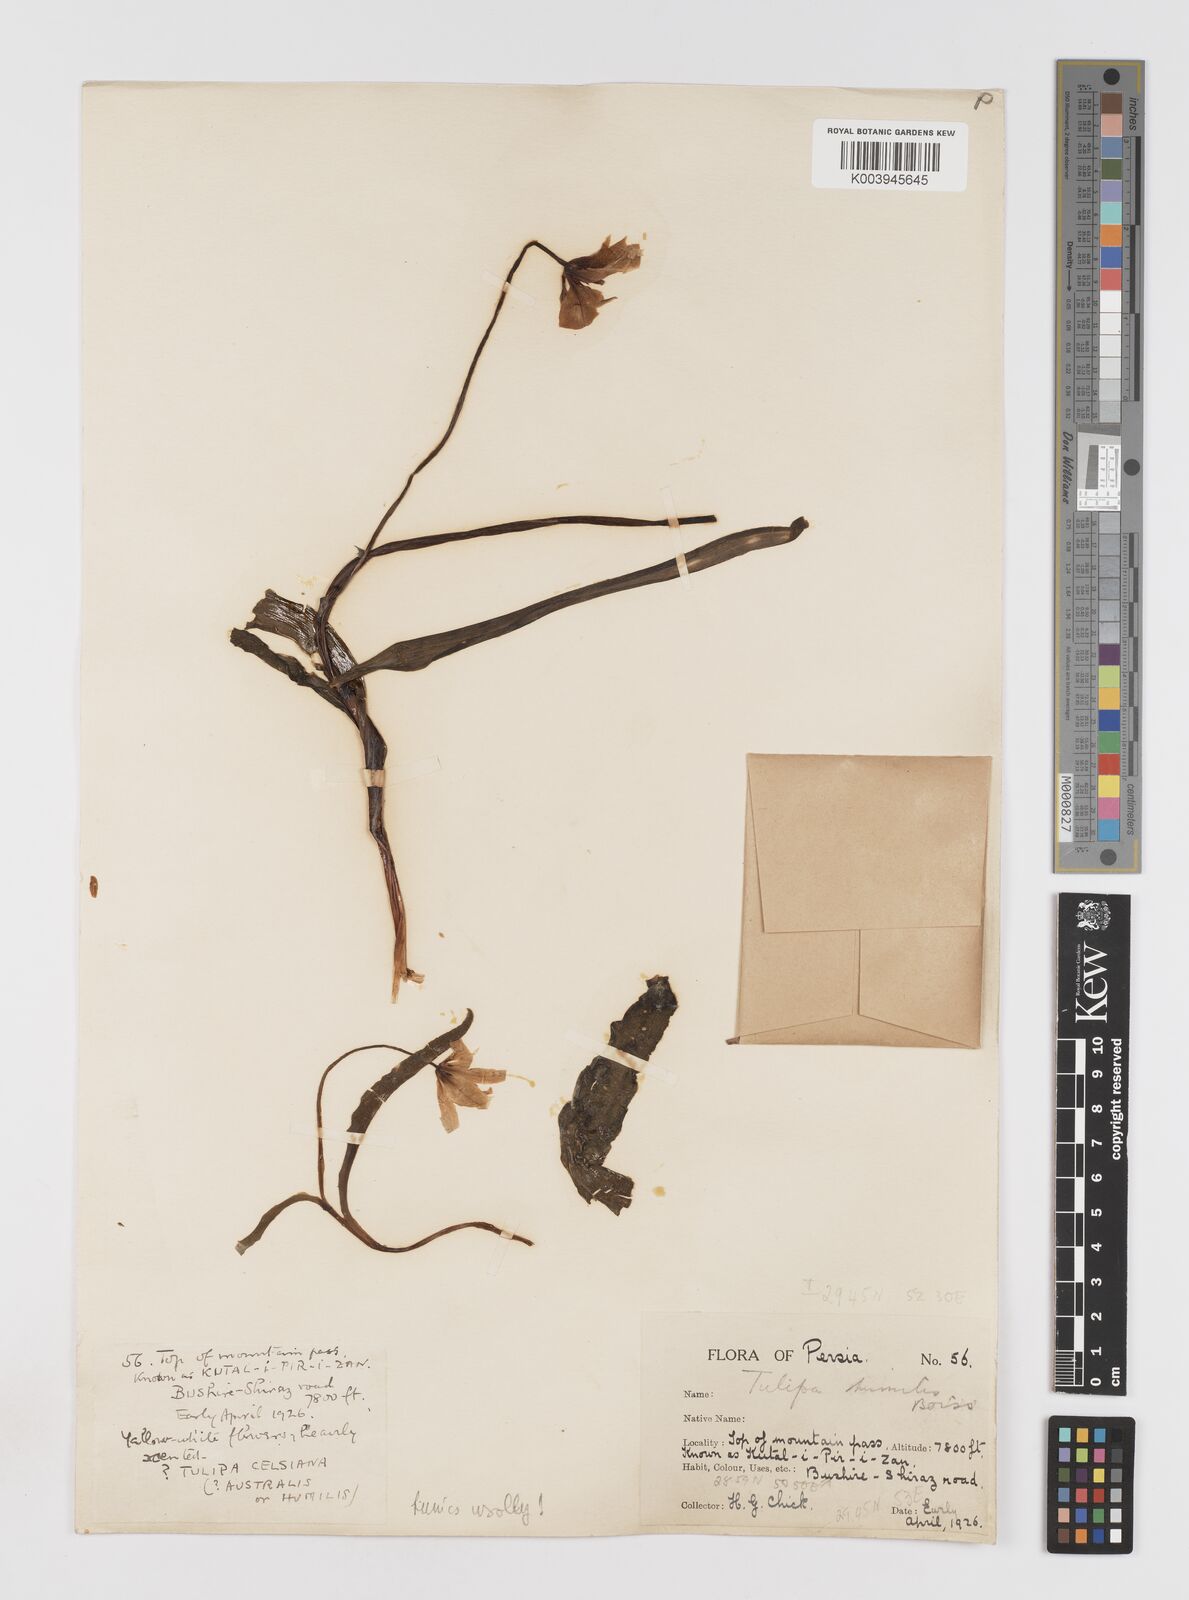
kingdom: Plantae
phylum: Tracheophyta
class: Liliopsida
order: Liliales
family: Liliaceae
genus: Tulipa
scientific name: Tulipa sylvestris
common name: Wild tulip
